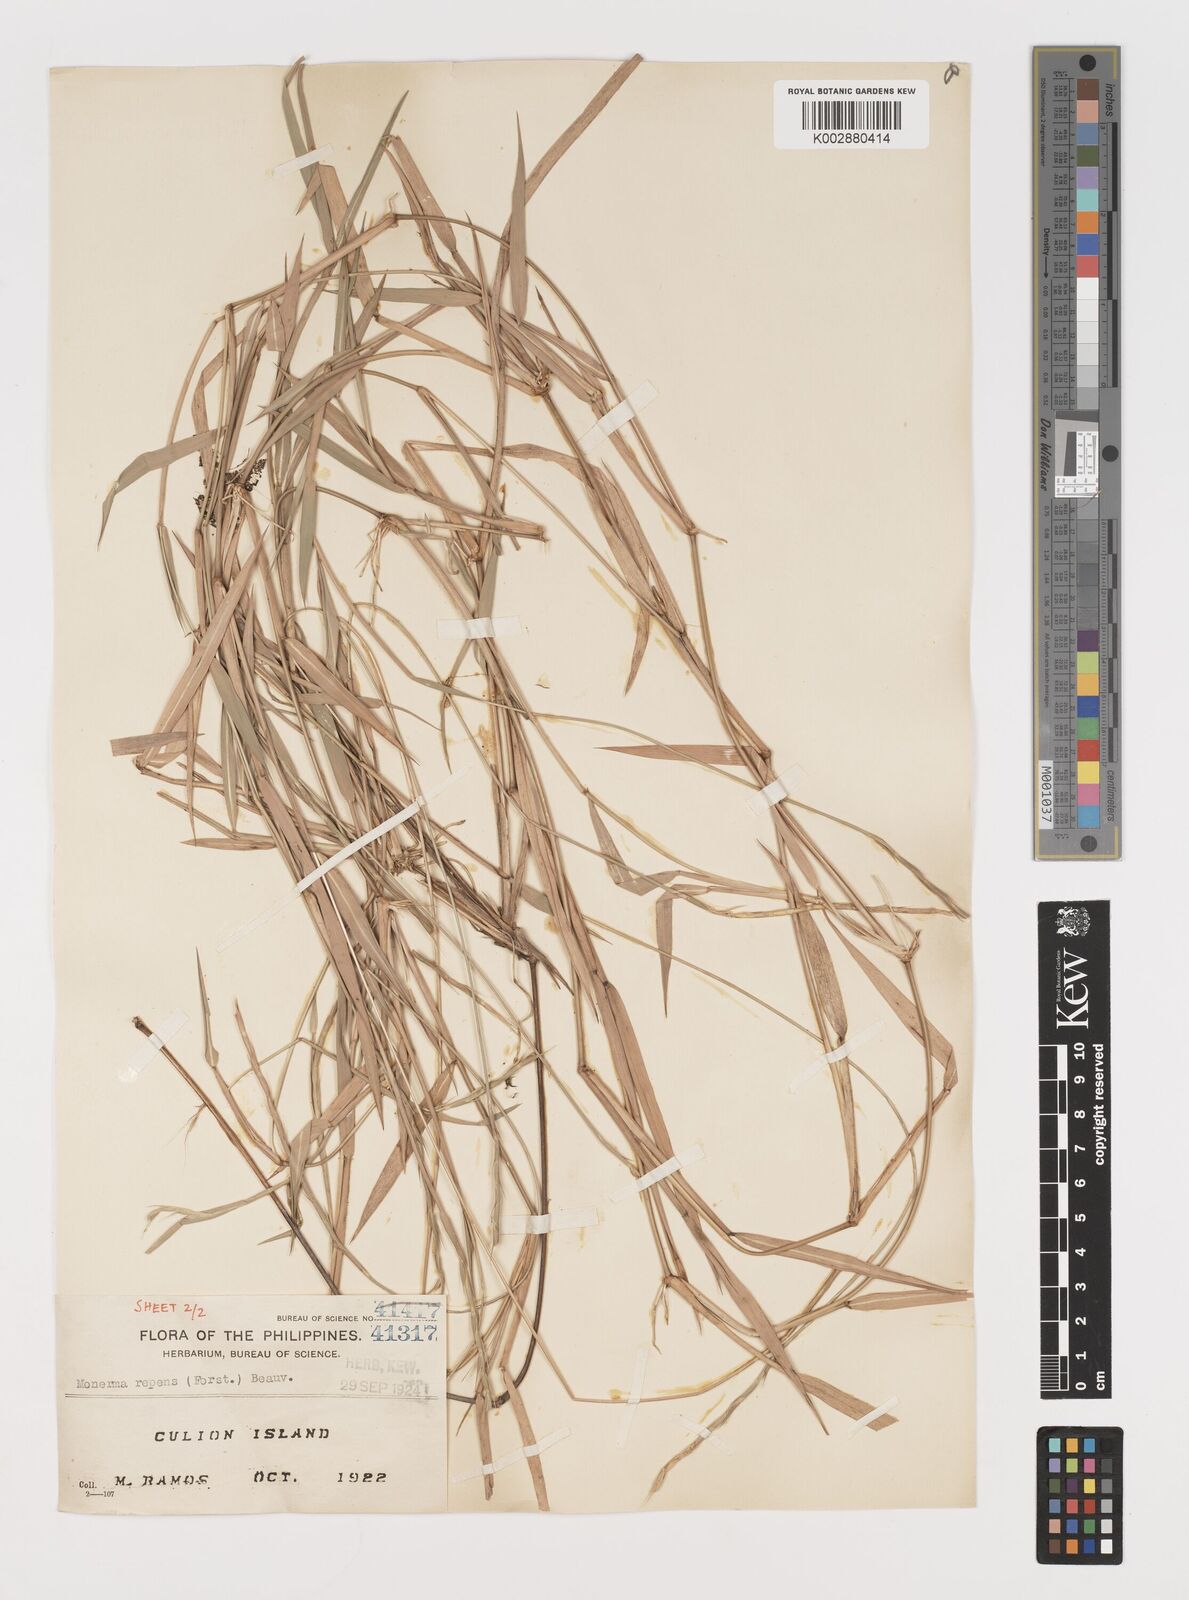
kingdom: Plantae
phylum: Tracheophyta
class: Liliopsida
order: Poales
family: Poaceae
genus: Lepturus
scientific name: Lepturus repens
